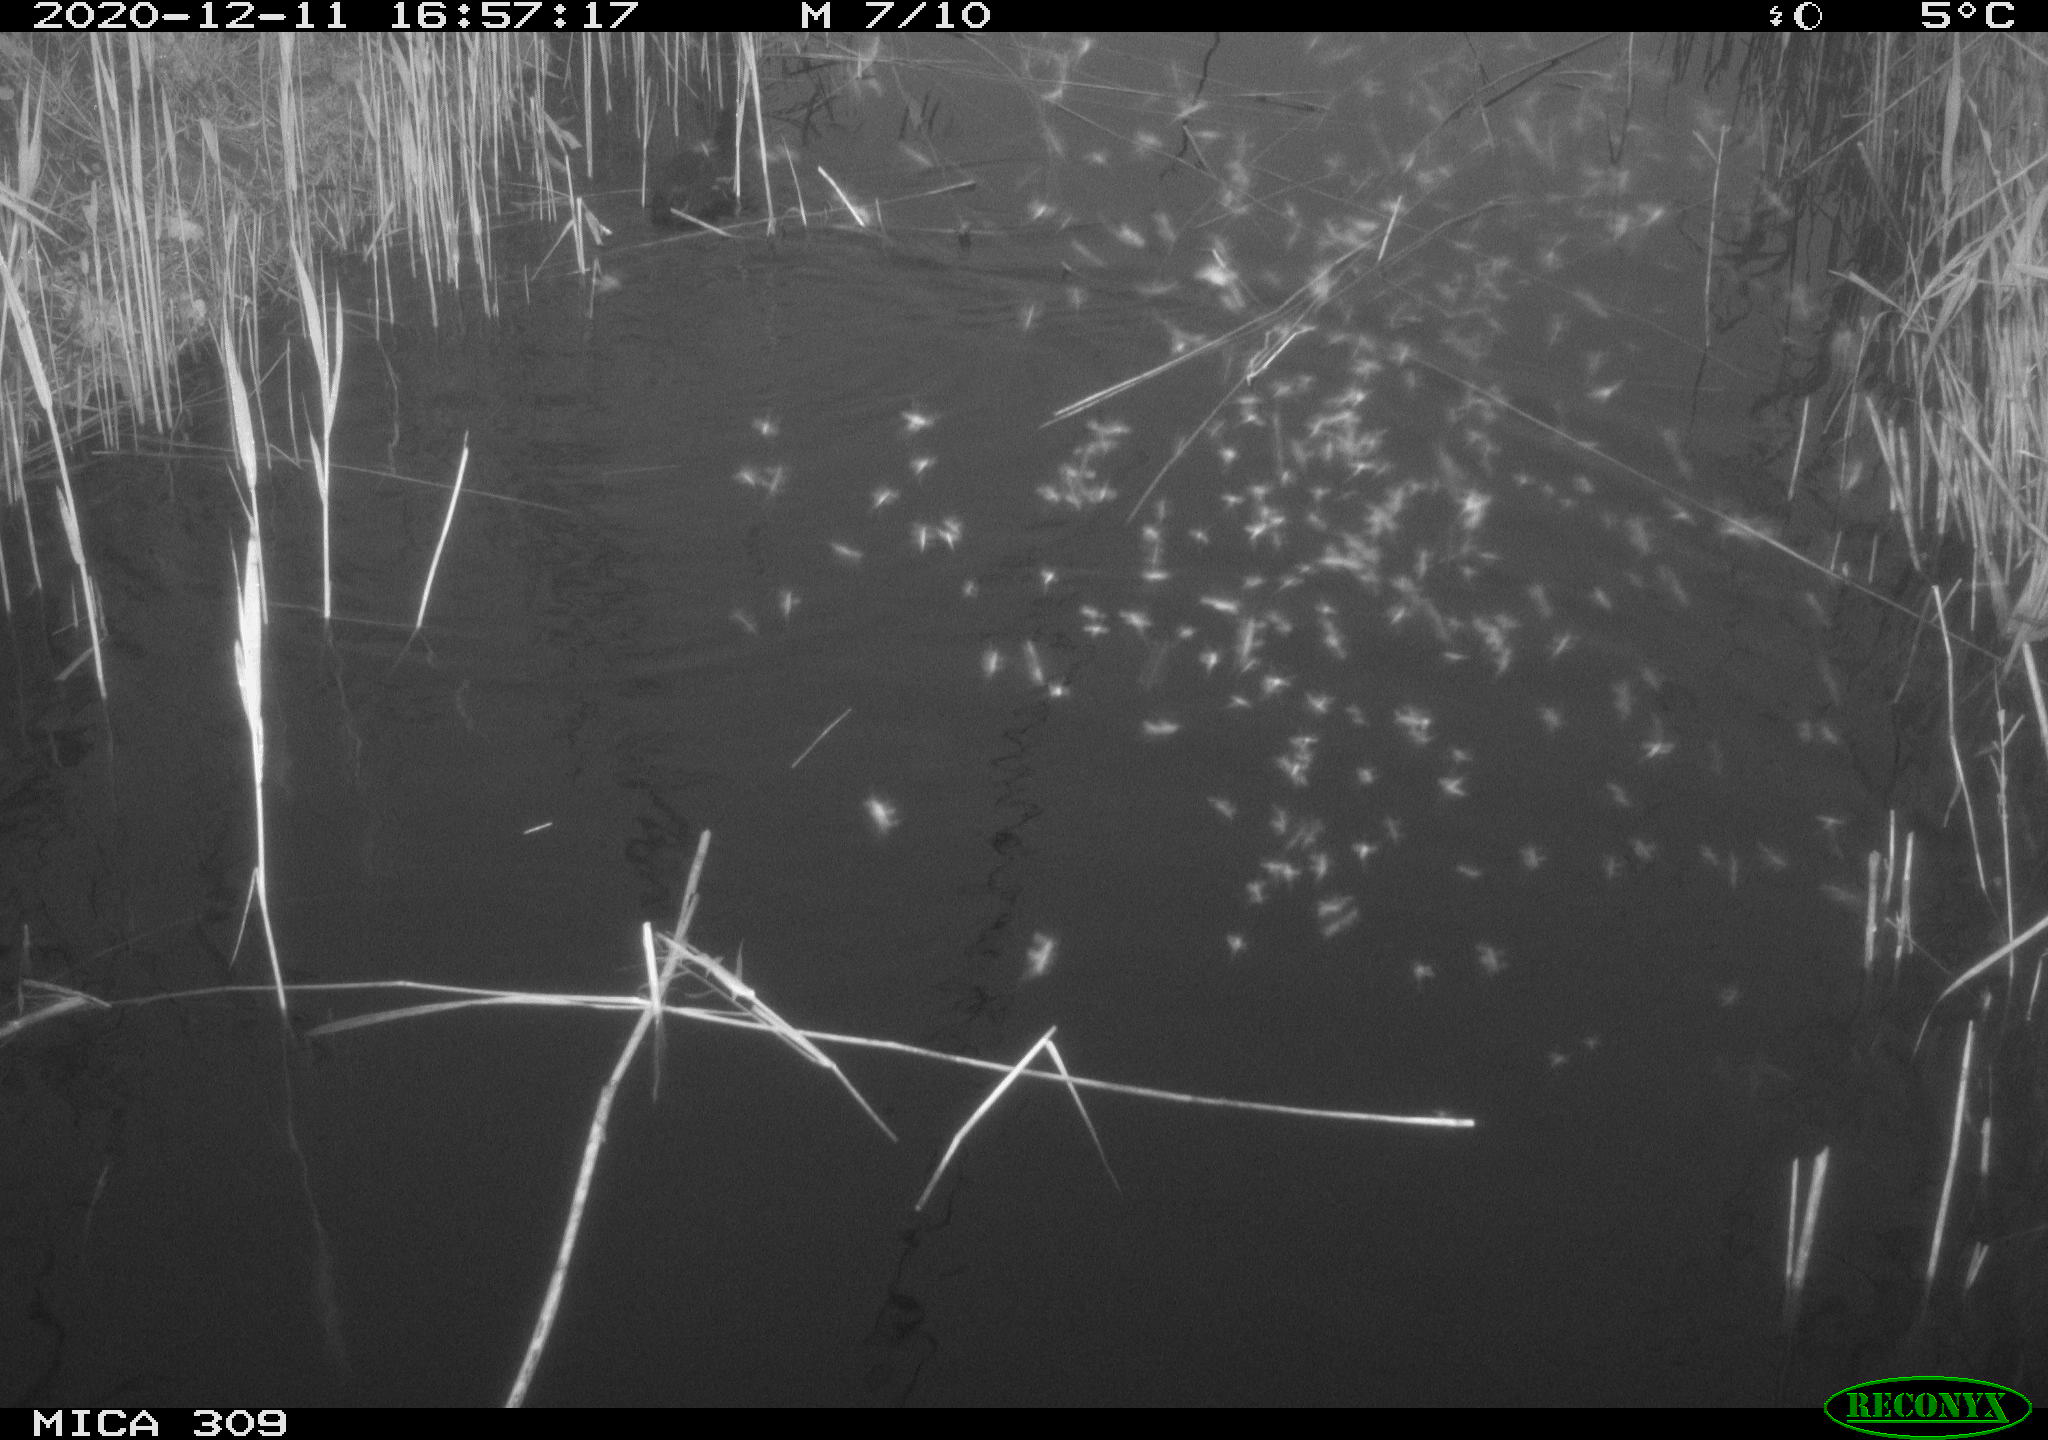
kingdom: Animalia
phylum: Chordata
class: Aves
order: Gruiformes
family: Rallidae
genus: Gallinula
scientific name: Gallinula chloropus
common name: Common moorhen
